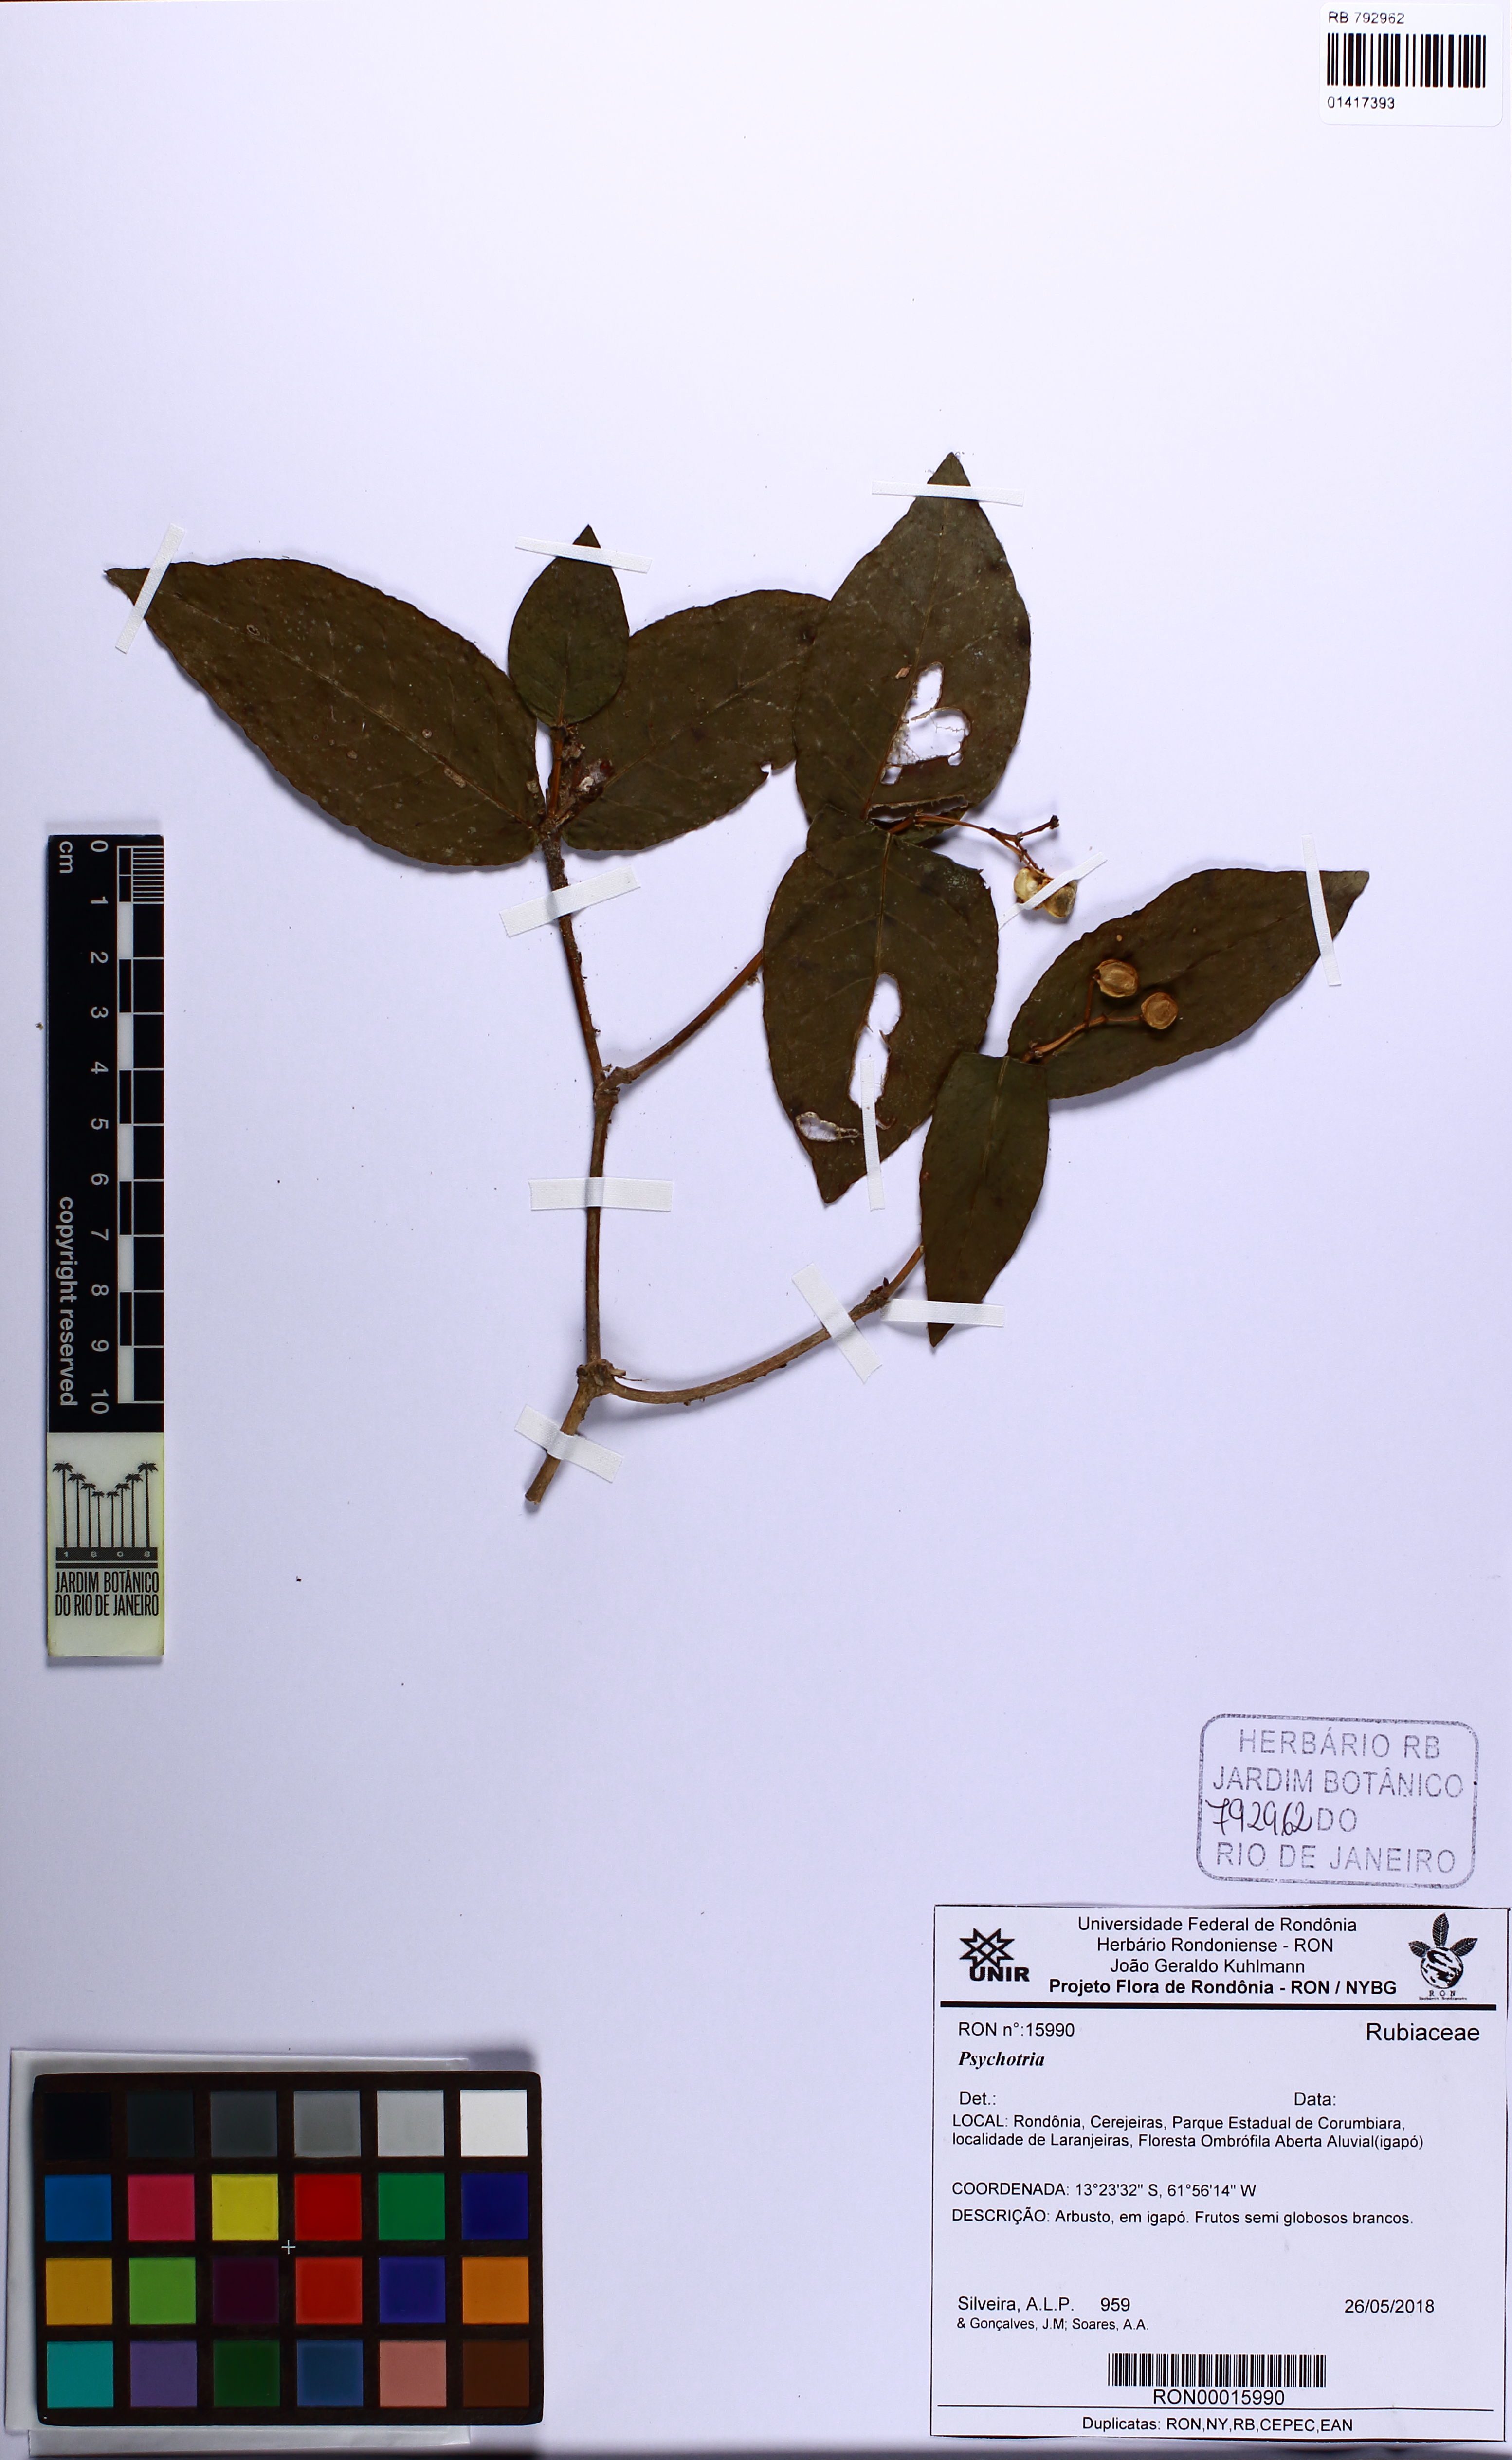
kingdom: Plantae
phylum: Tracheophyta
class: Magnoliopsida
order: Gentianales
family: Rubiaceae
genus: Psychotria
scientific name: Psychotria
